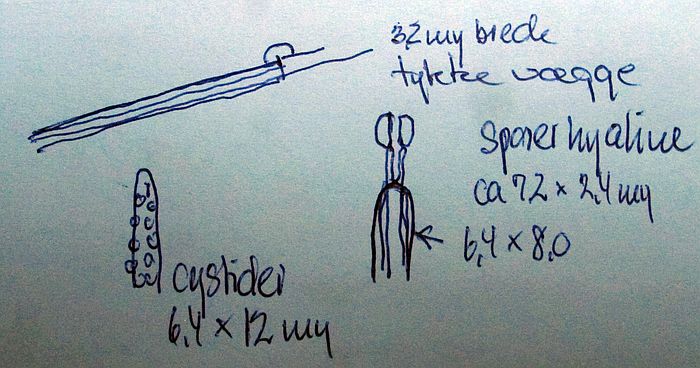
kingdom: Fungi
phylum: Basidiomycota
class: Agaricomycetes
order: Hymenochaetales
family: Schizoporaceae
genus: Xylodon
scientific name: Xylodon nesporii
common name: fintandet tandsvamp
